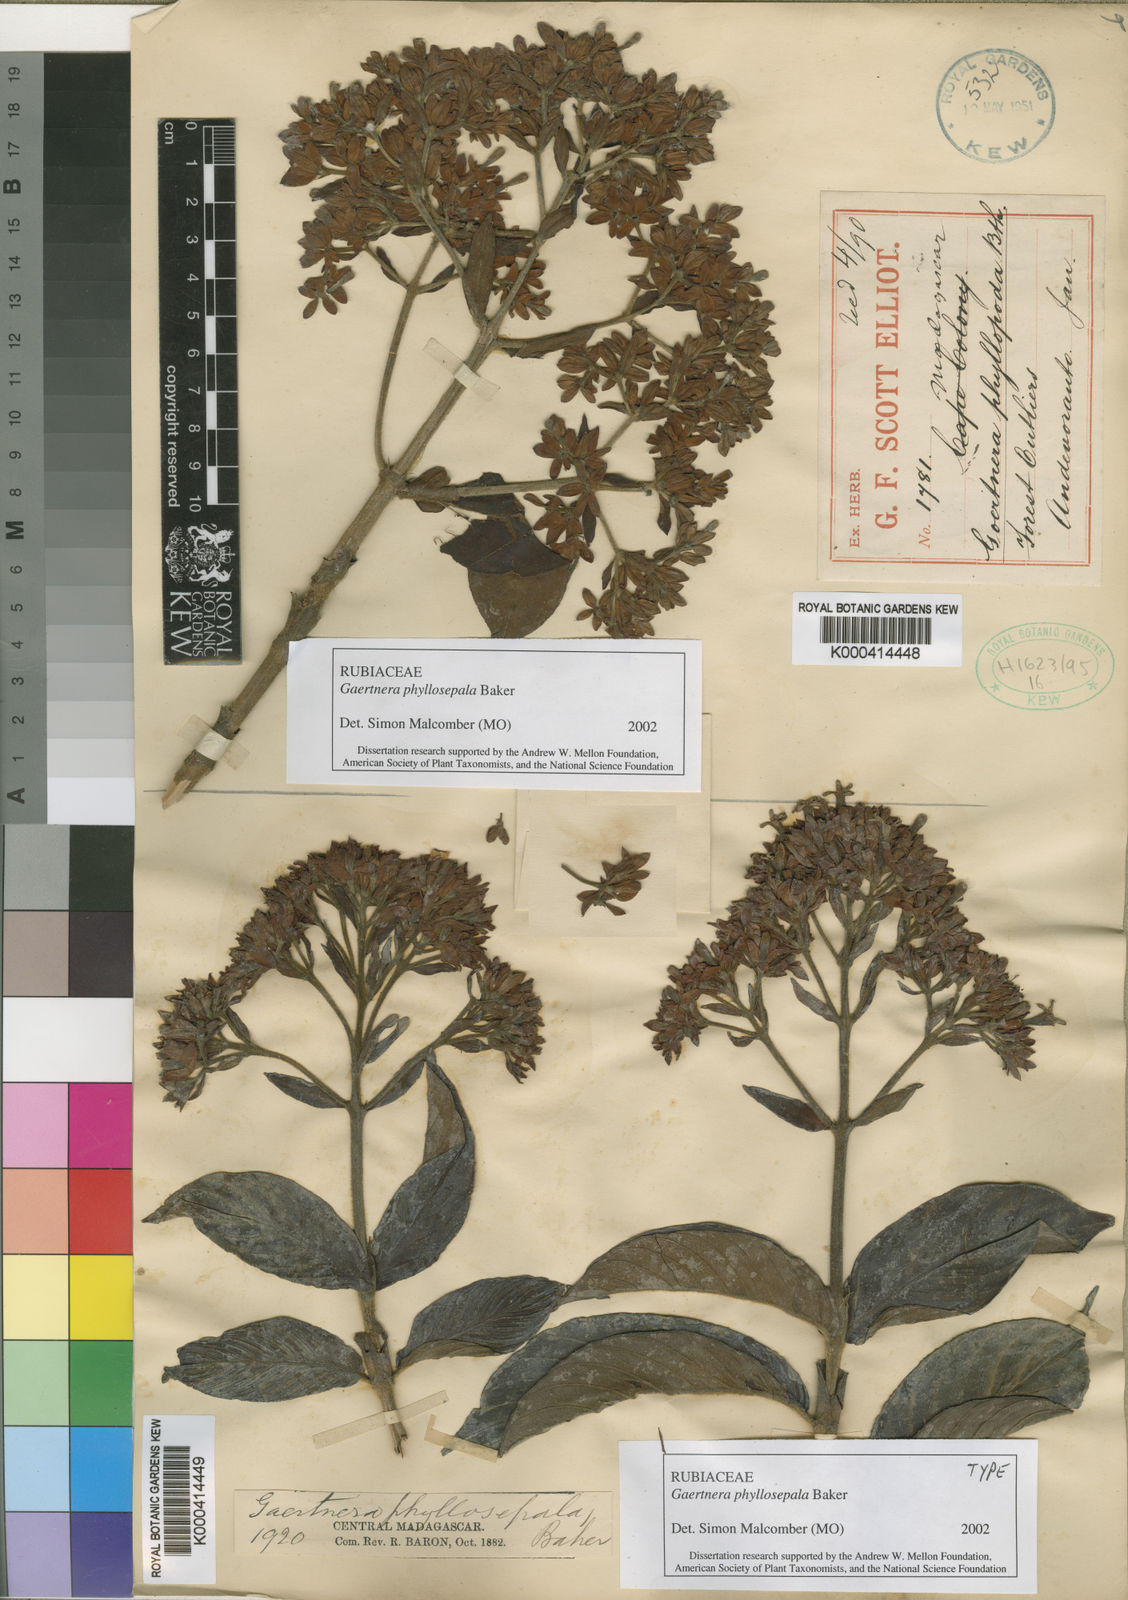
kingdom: Plantae
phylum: Tracheophyta
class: Magnoliopsida
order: Gentianales
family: Rubiaceae
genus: Gaertnera
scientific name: Gaertnera phyllosepala
